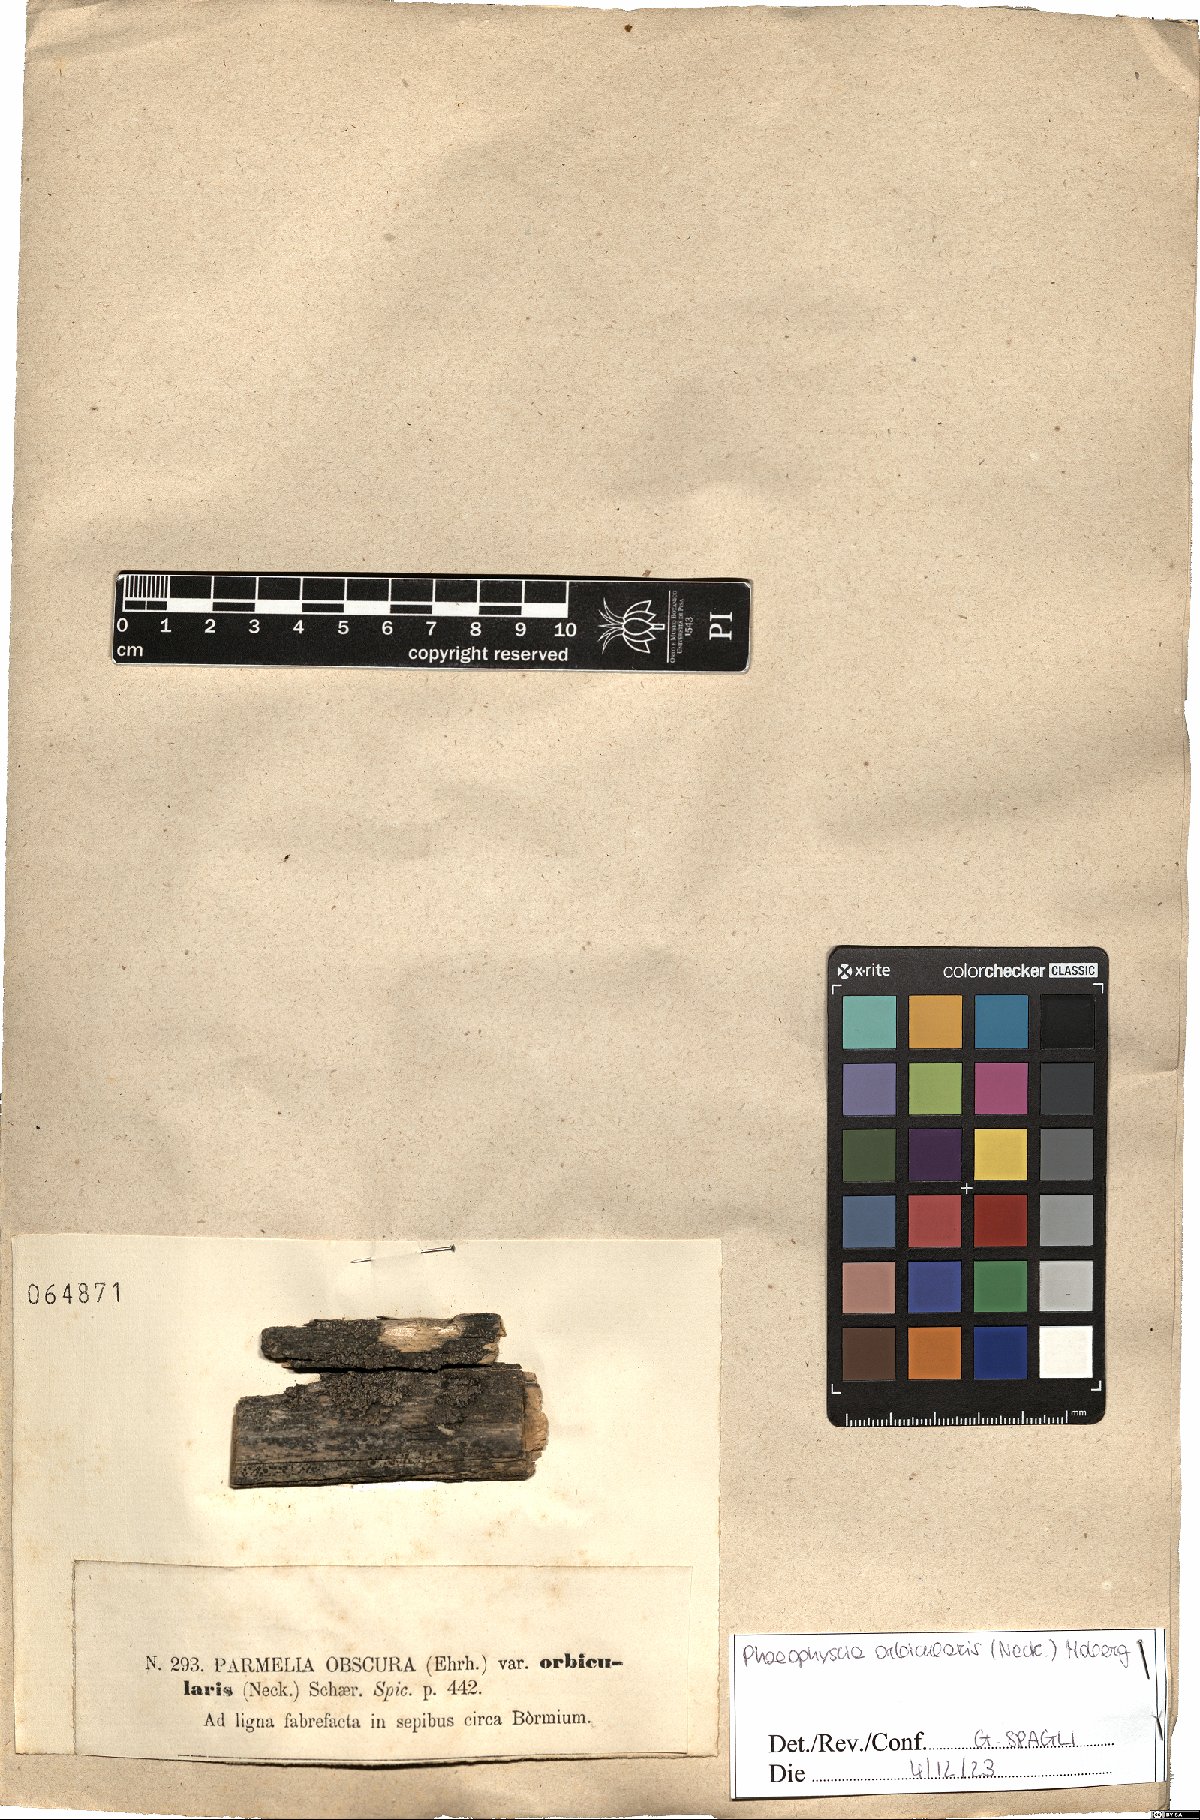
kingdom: Fungi
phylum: Ascomycota
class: Lecanoromycetes
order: Caliciales
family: Physciaceae
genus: Phaeophyscia
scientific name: Phaeophyscia orbicularis
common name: Mealy shadow lichen
